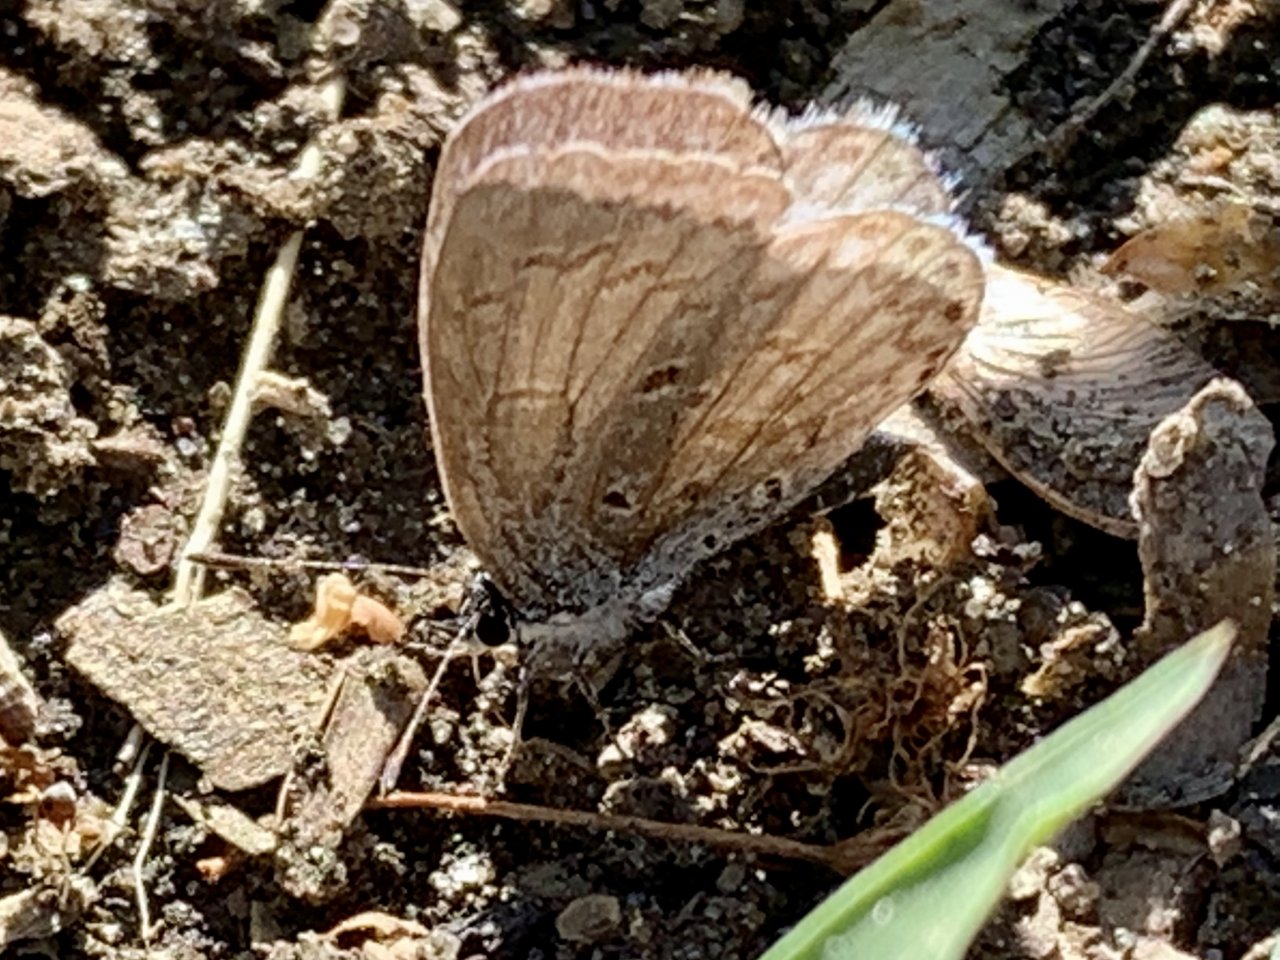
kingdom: Animalia
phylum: Arthropoda
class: Insecta
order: Lepidoptera
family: Lycaenidae
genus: Celastrina
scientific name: Celastrina lucia
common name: Northern Spring Azure
